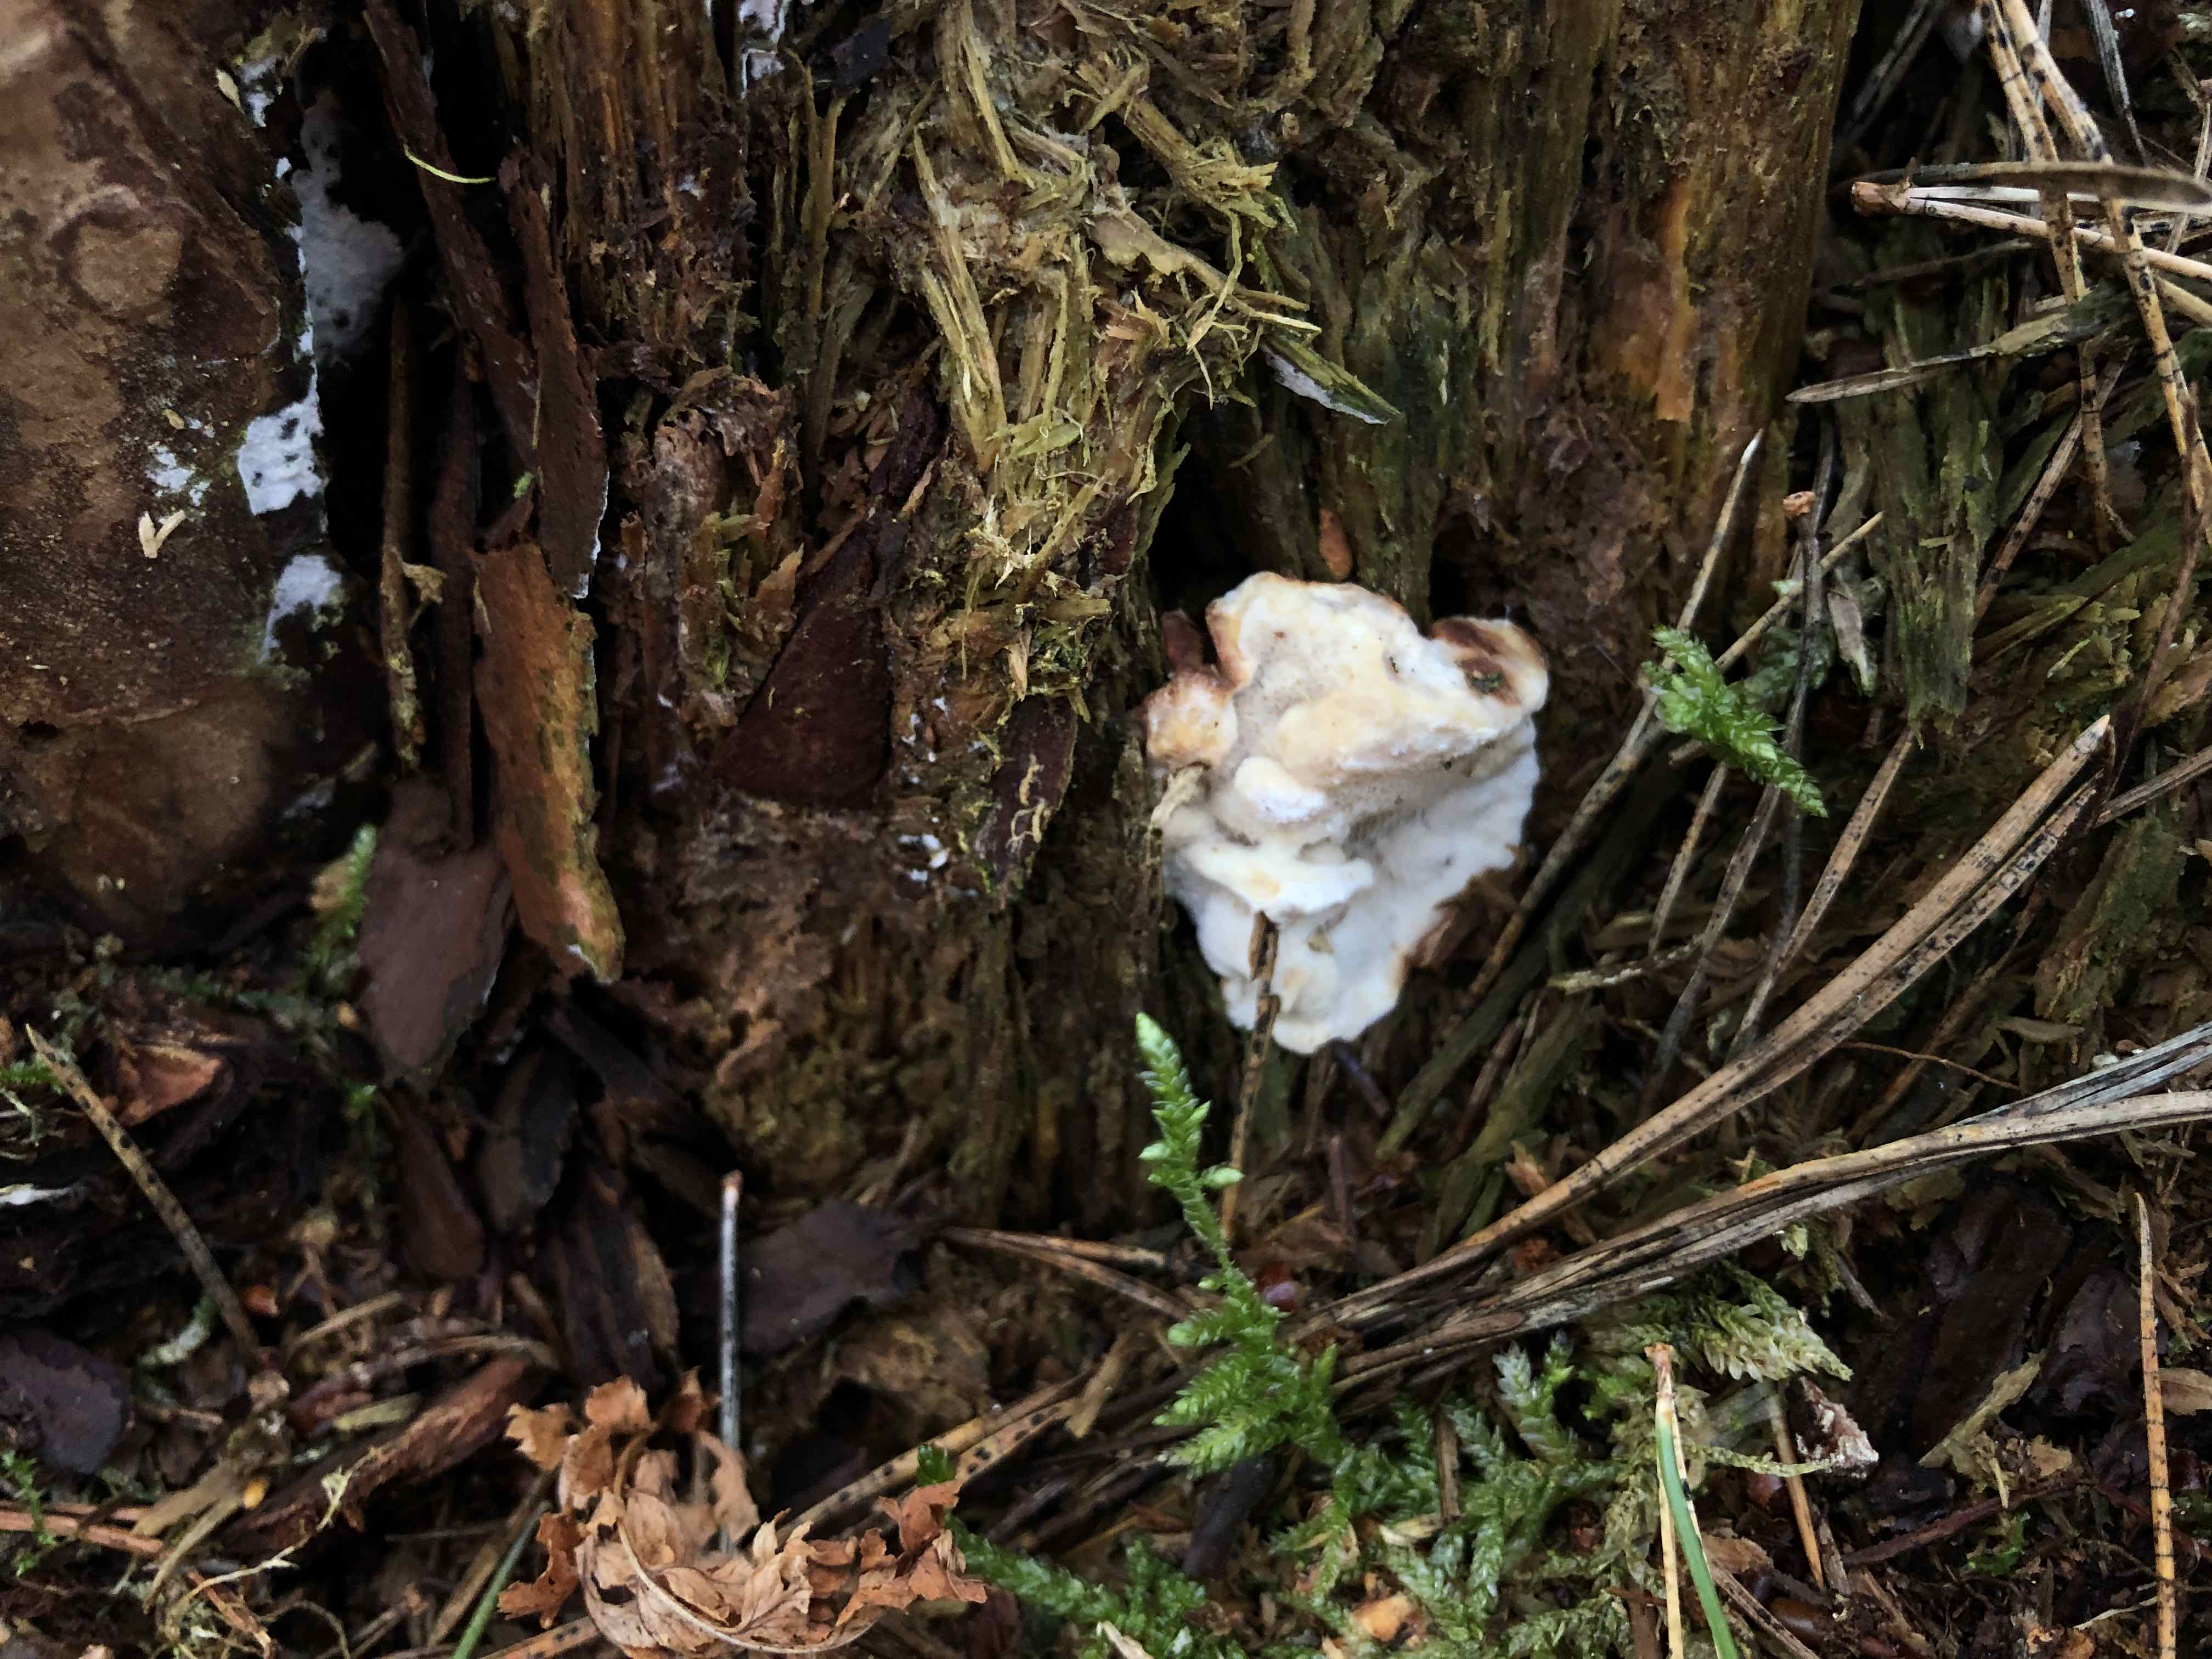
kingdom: Fungi
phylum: Basidiomycota
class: Agaricomycetes
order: Russulales
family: Bondarzewiaceae
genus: Heterobasidion
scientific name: Heterobasidion annosum
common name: almindelig rodfordærver
